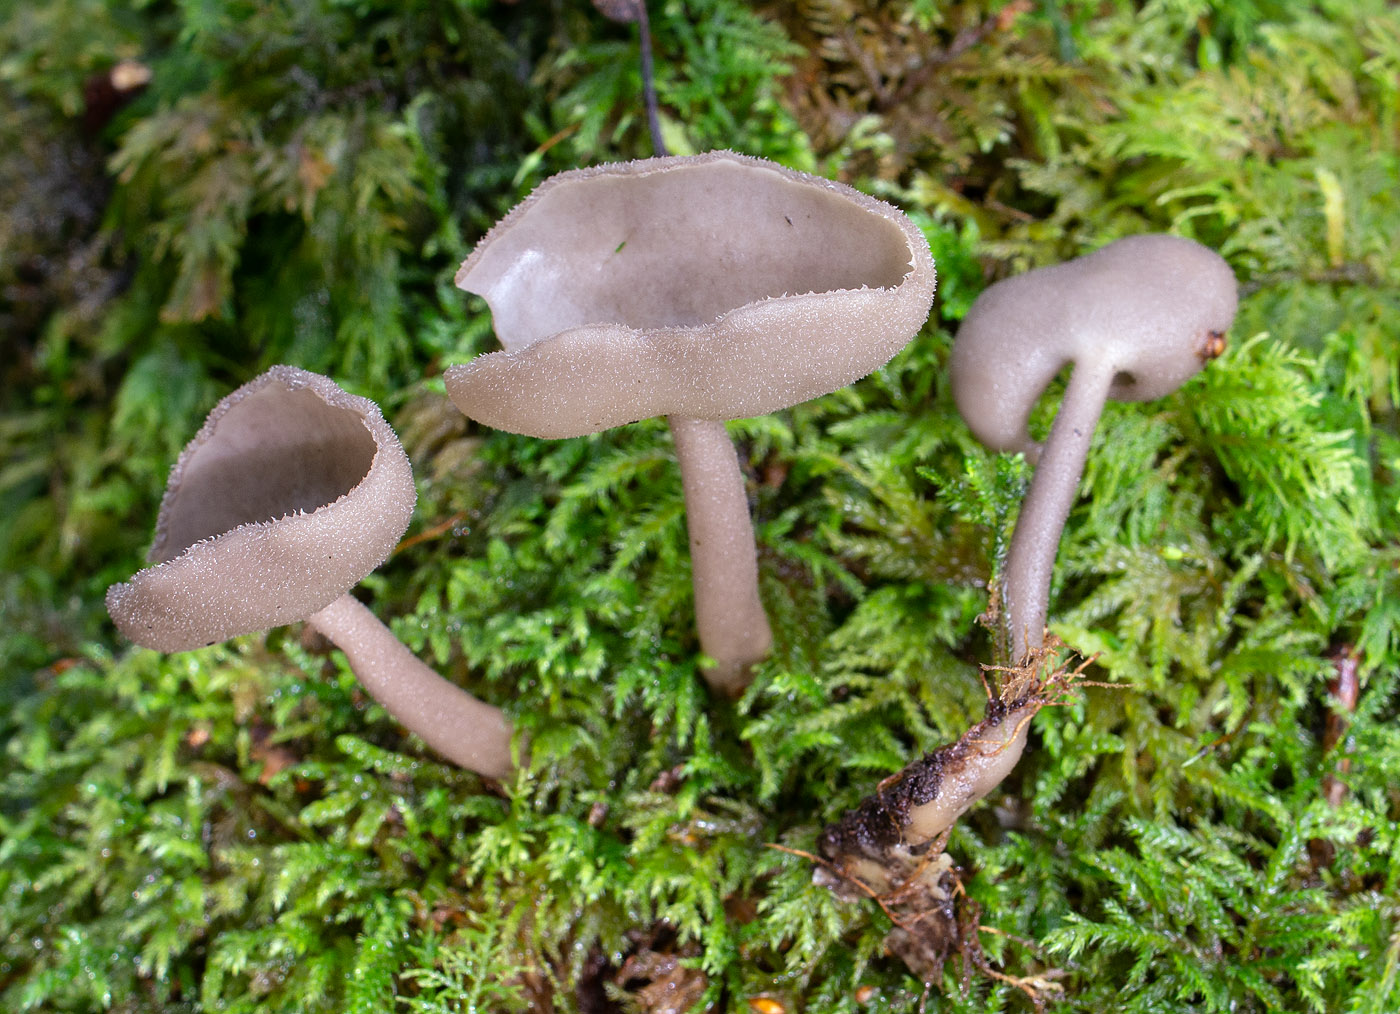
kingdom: Fungi
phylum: Ascomycota
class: Pezizomycetes
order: Pezizales
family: Helvellaceae
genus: Helvella
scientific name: Helvella macropus
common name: højstokket foldhat
